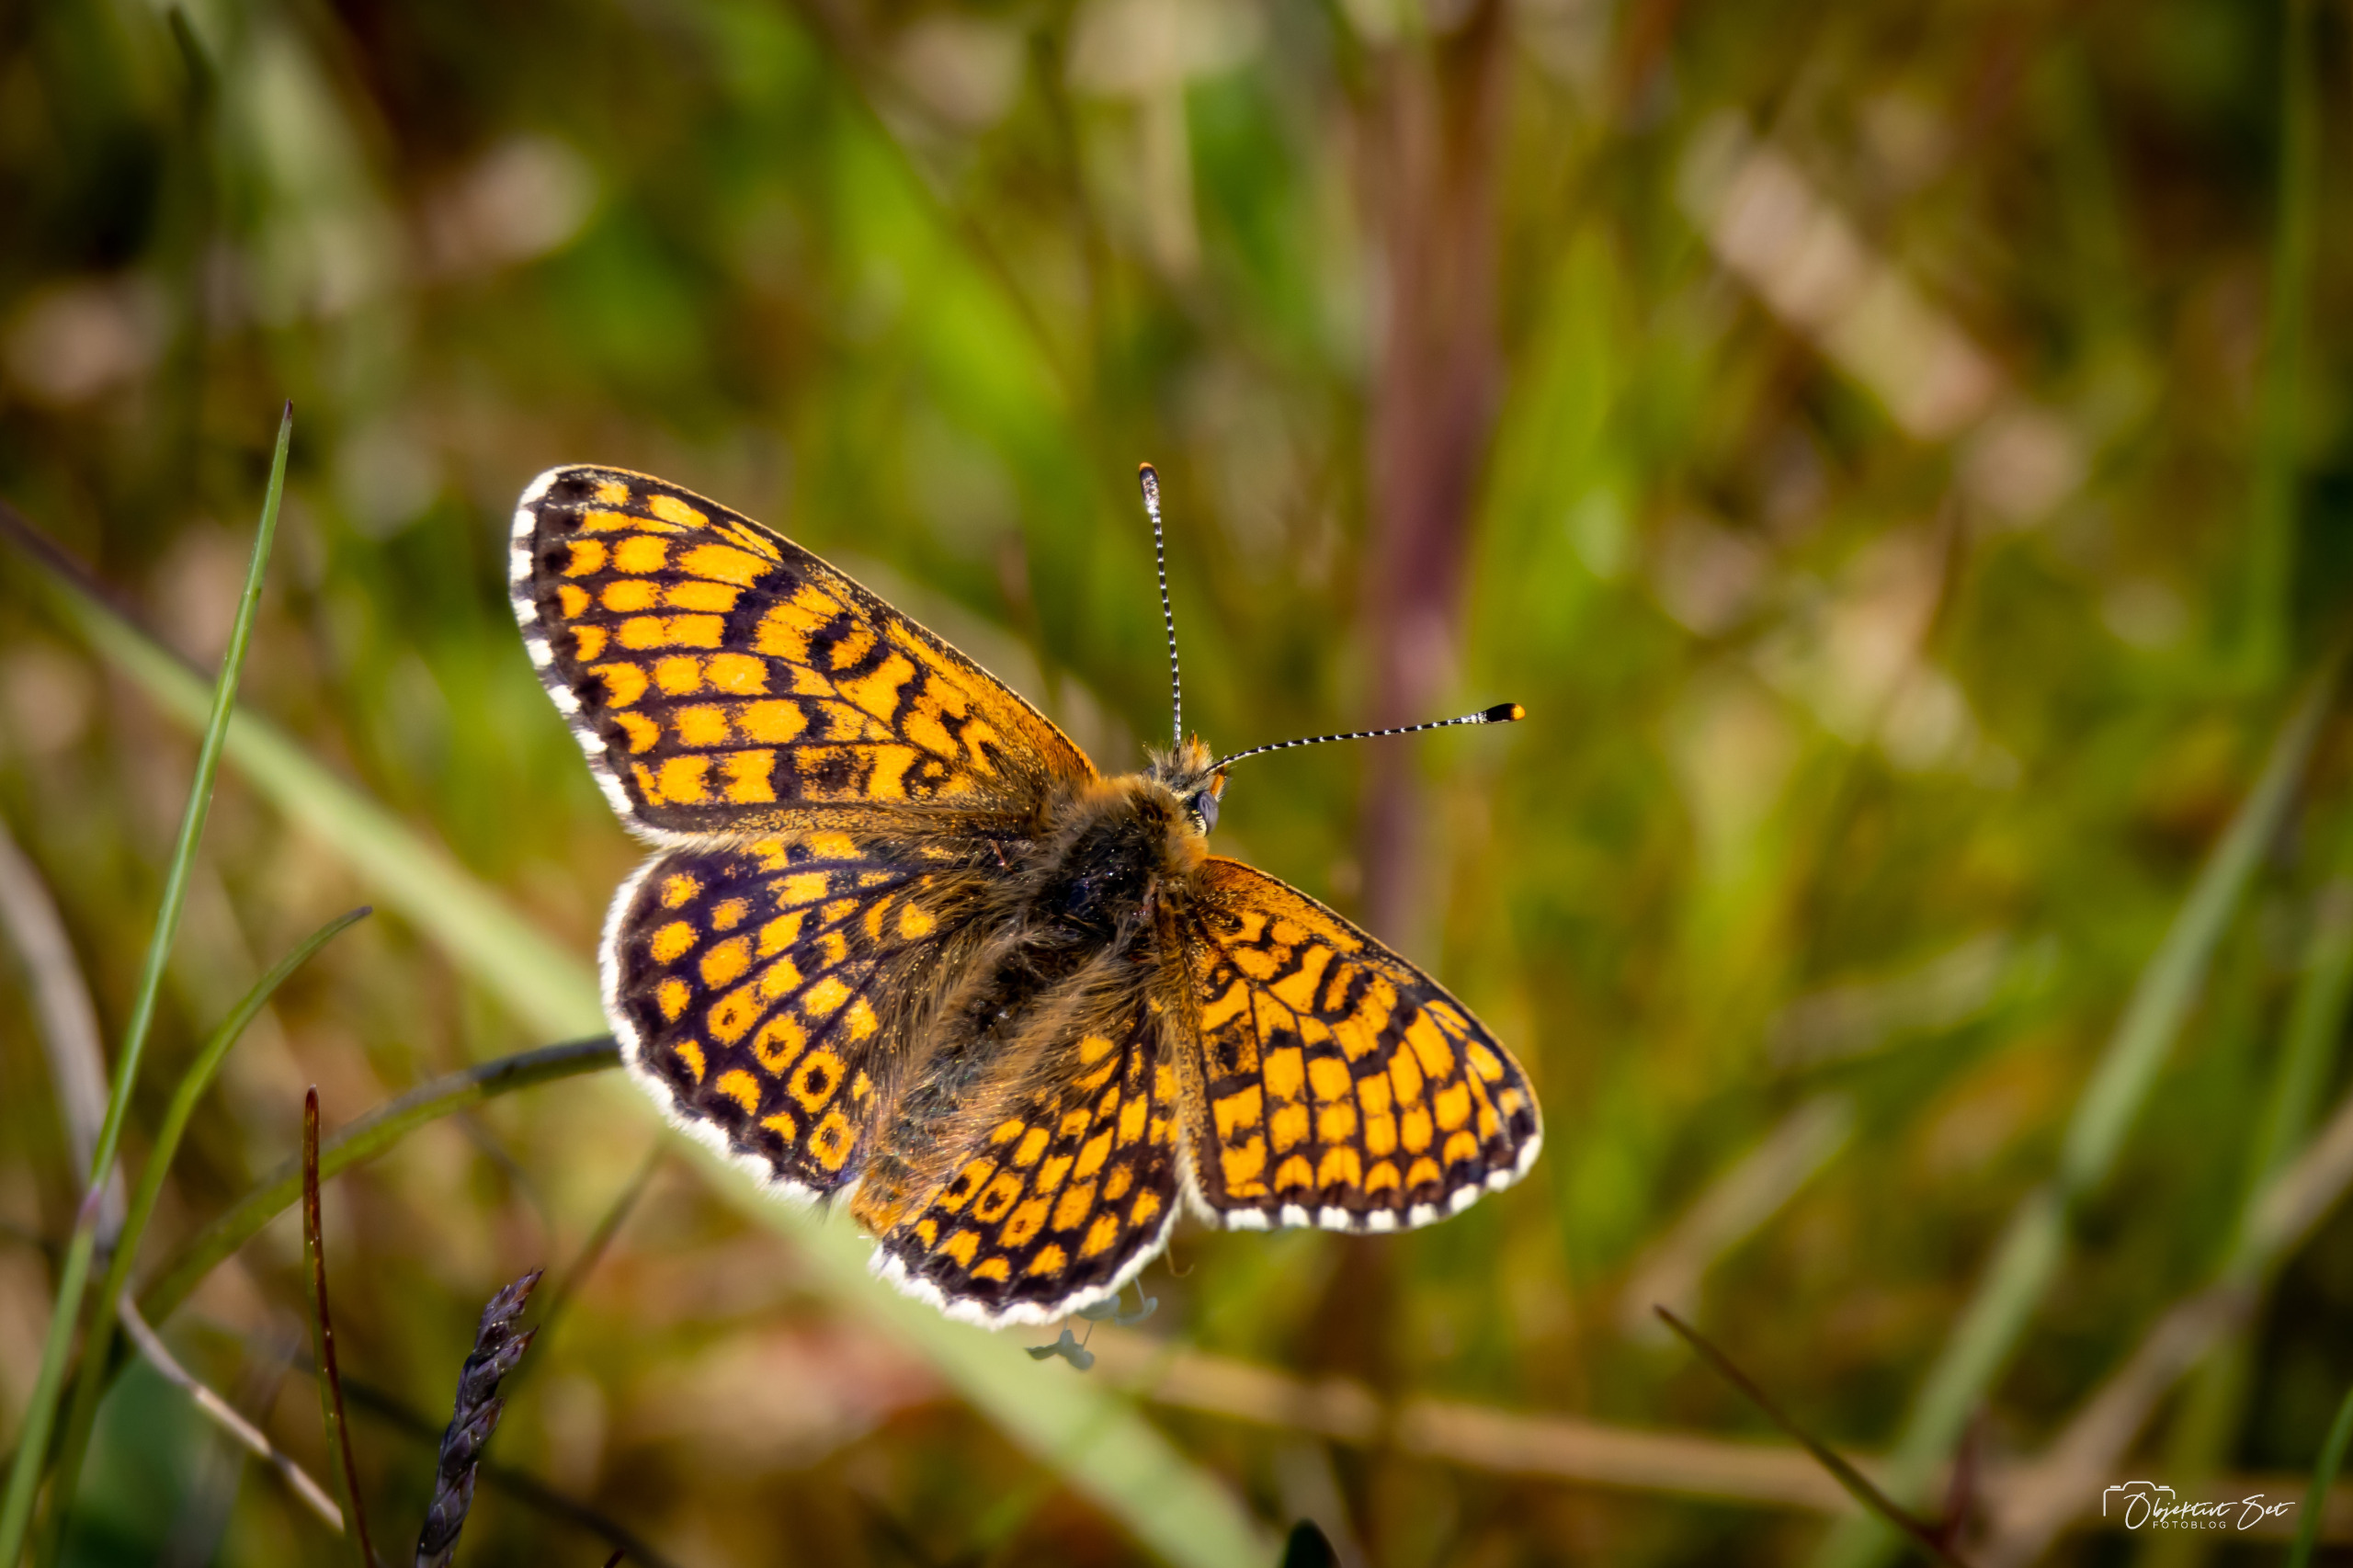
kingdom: Animalia
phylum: Arthropoda
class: Insecta
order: Lepidoptera
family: Nymphalidae
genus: Melitaea
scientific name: Melitaea cinxia
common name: Okkergul pletvinge
